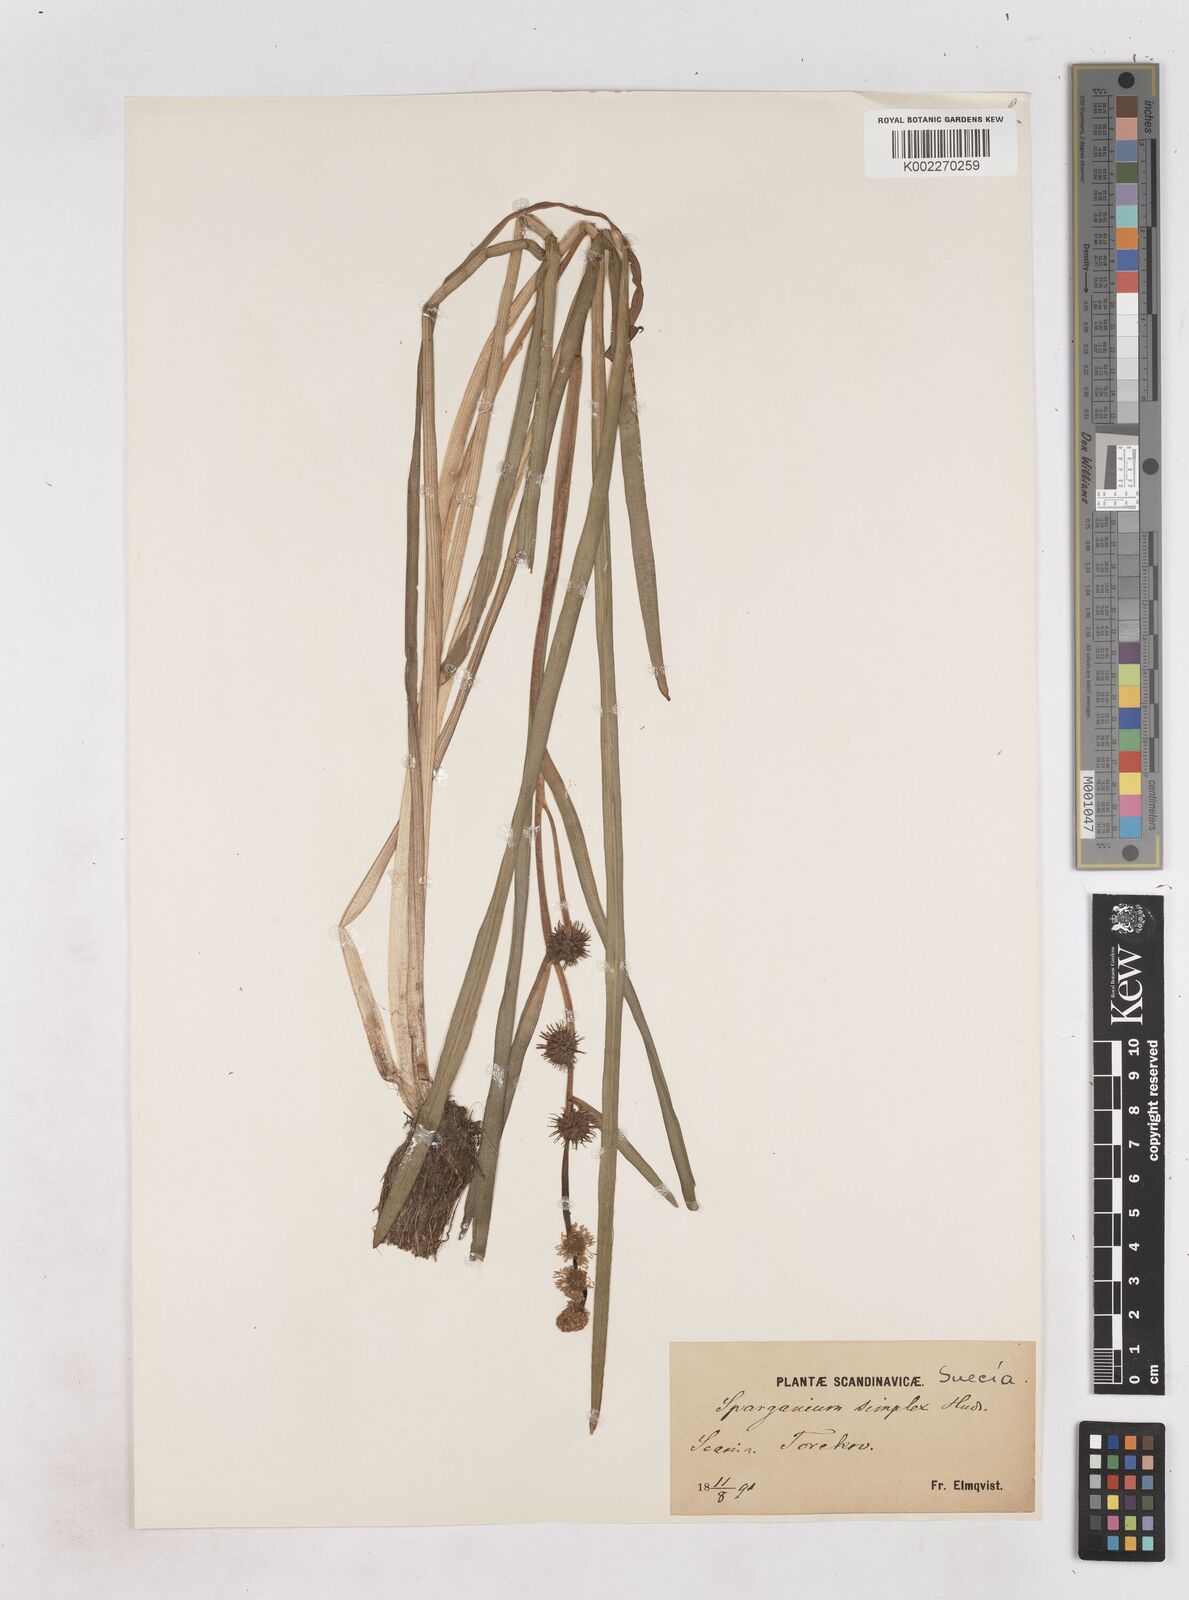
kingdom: Plantae
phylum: Tracheophyta
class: Liliopsida
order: Poales
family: Typhaceae
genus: Sparganium
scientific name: Sparganium emersum
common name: Unbranched bur-reed
